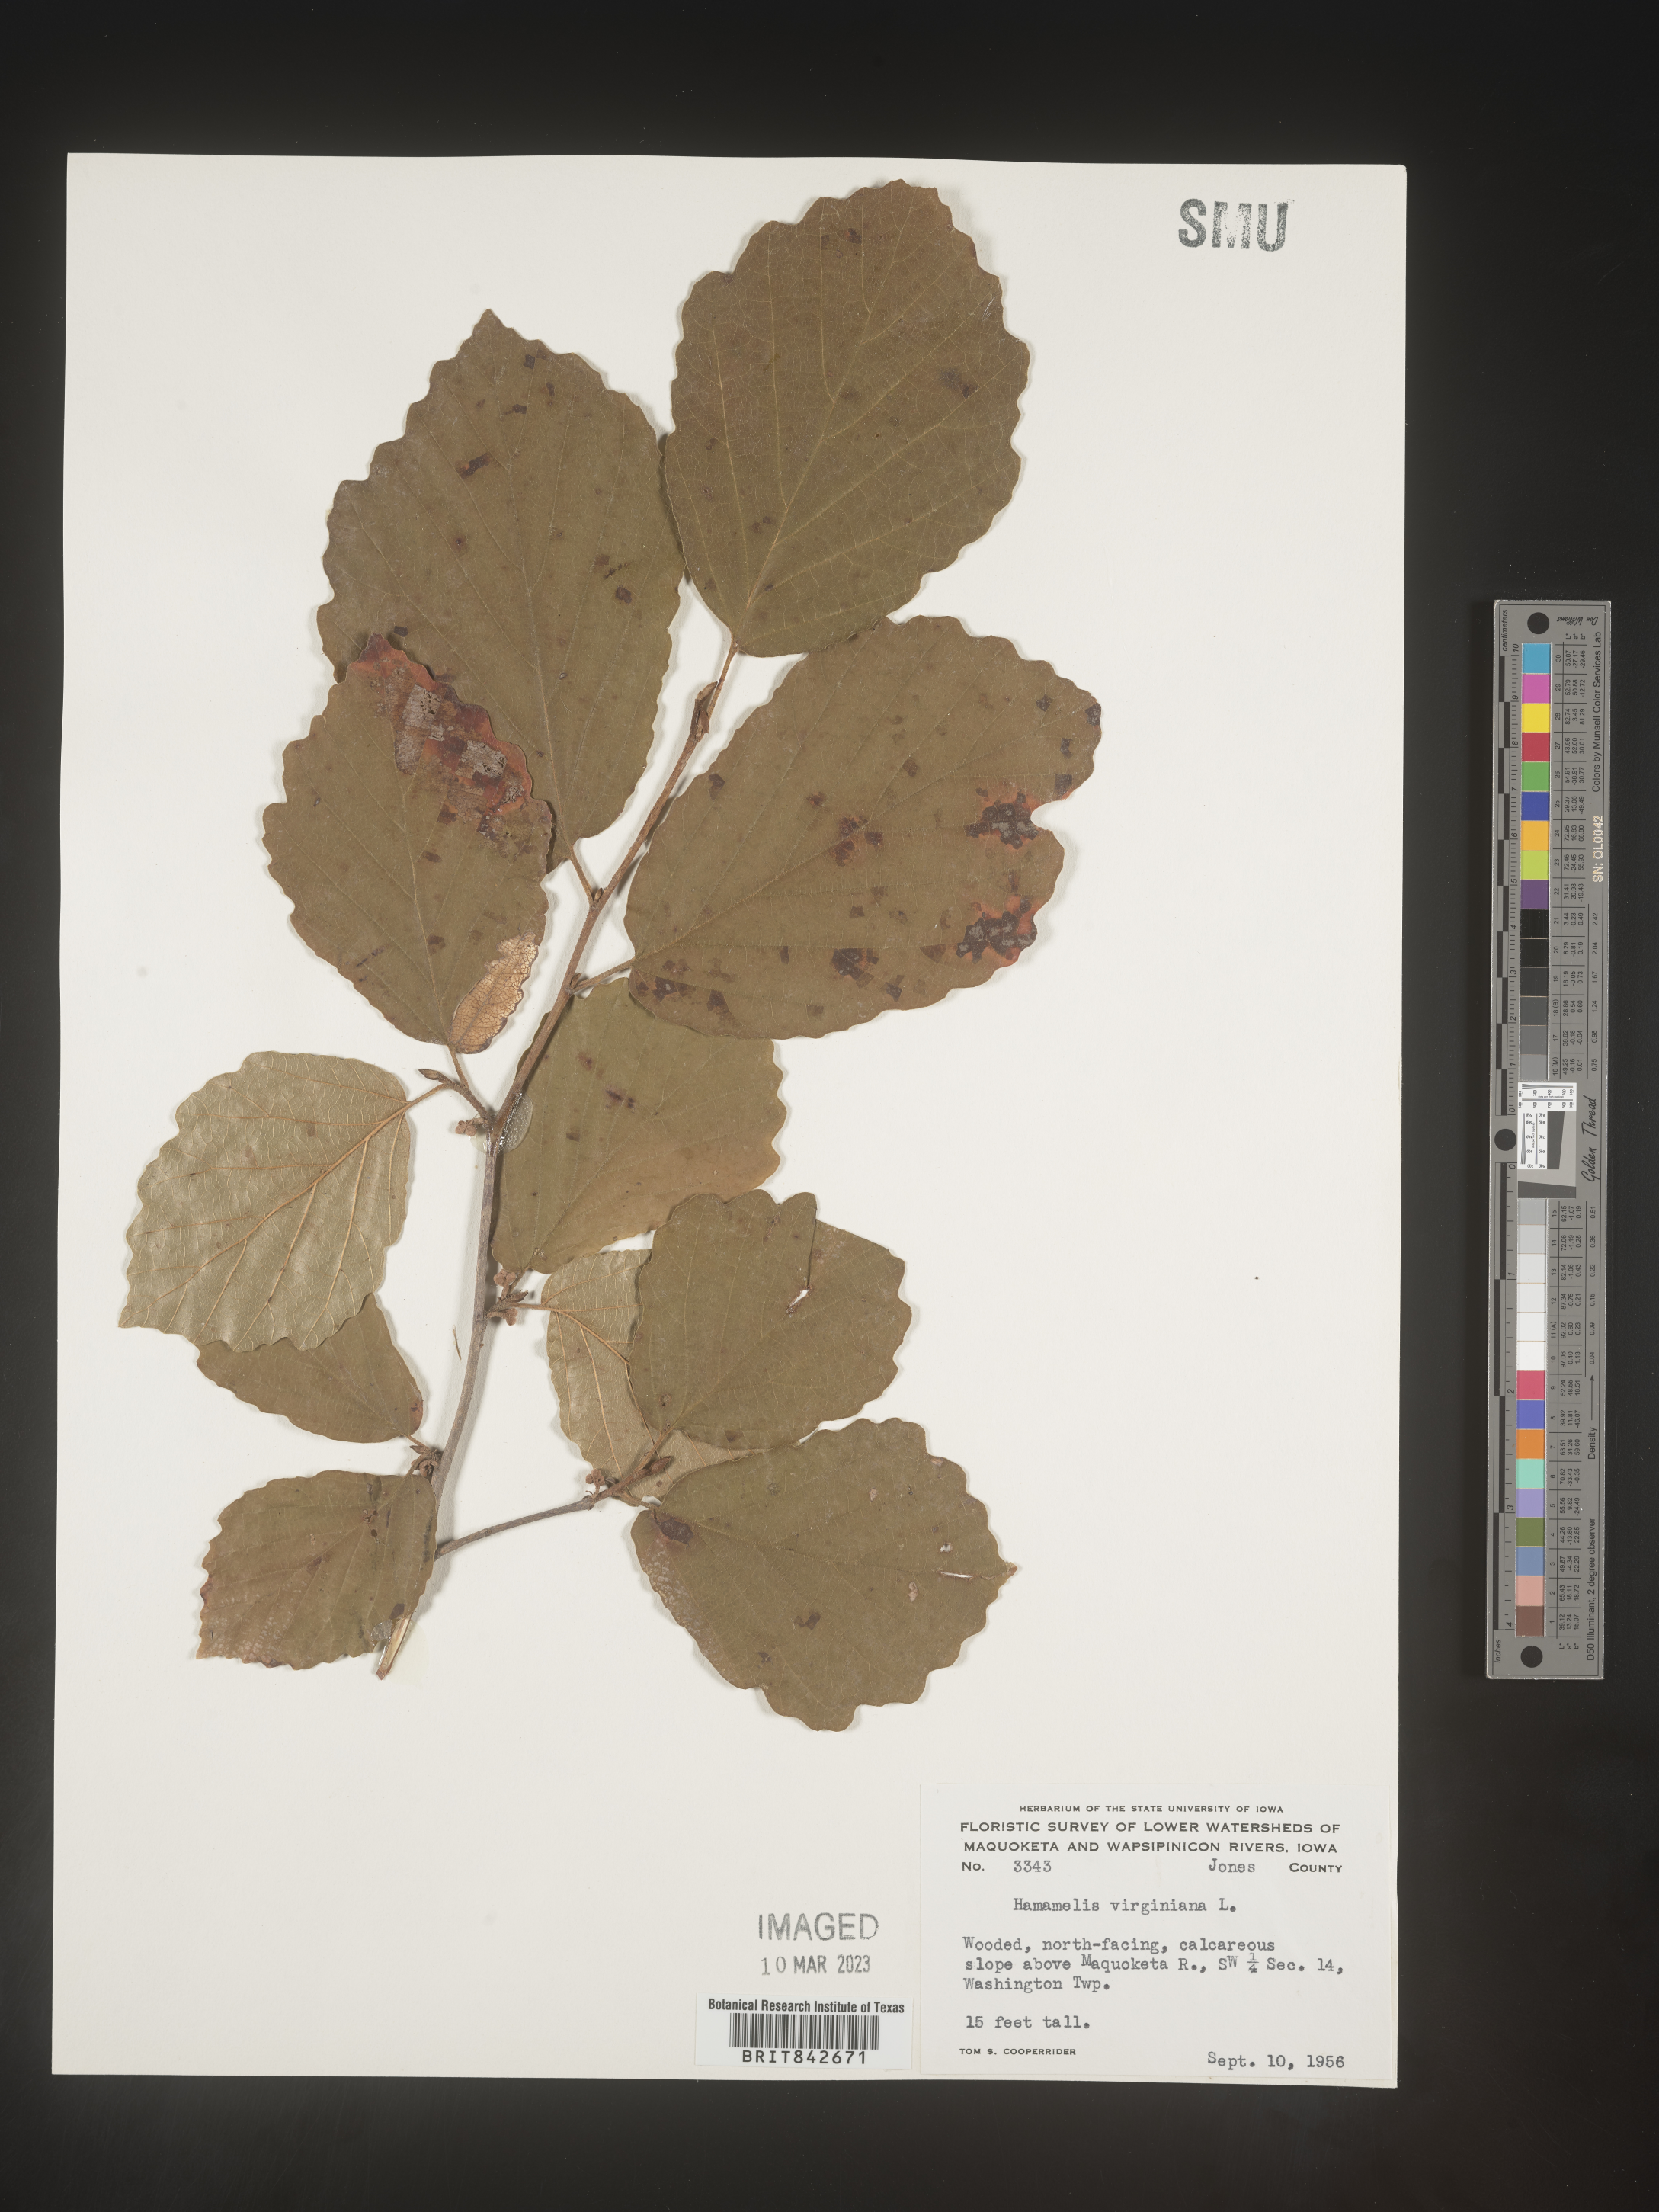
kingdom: Plantae
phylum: Tracheophyta
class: Magnoliopsida
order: Saxifragales
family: Hamamelidaceae
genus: Hamamelis
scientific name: Hamamelis virginiana
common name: Witch-hazel
